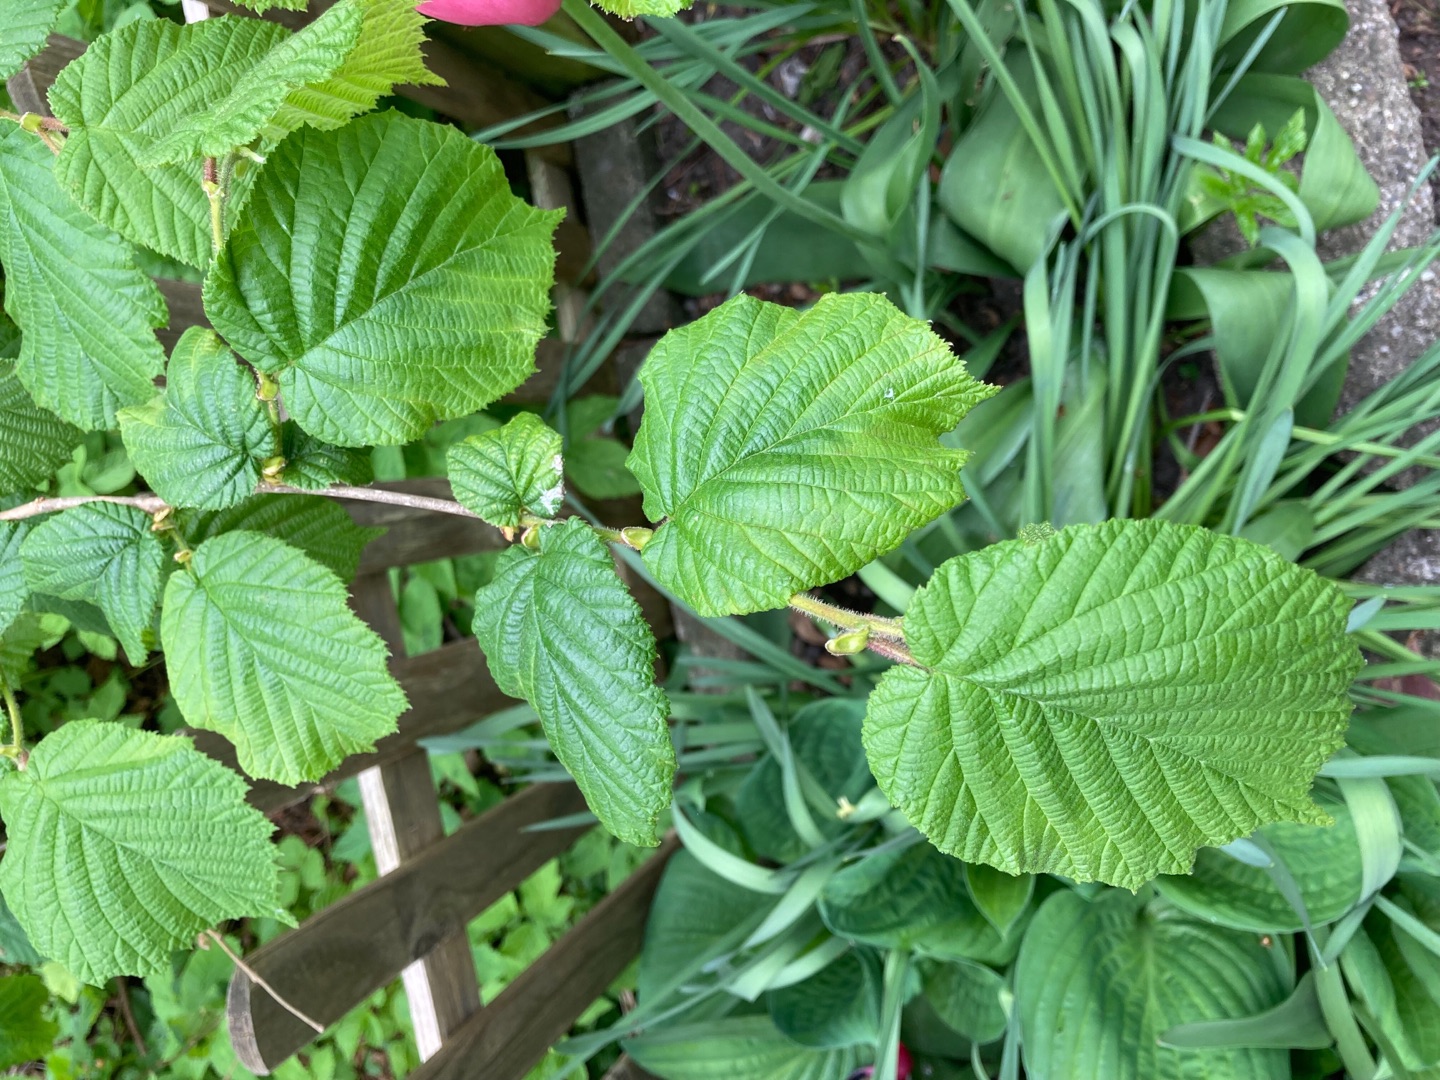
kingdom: Plantae
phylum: Tracheophyta
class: Magnoliopsida
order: Fagales
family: Betulaceae
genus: Corylus
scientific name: Corylus avellana
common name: Hassel
